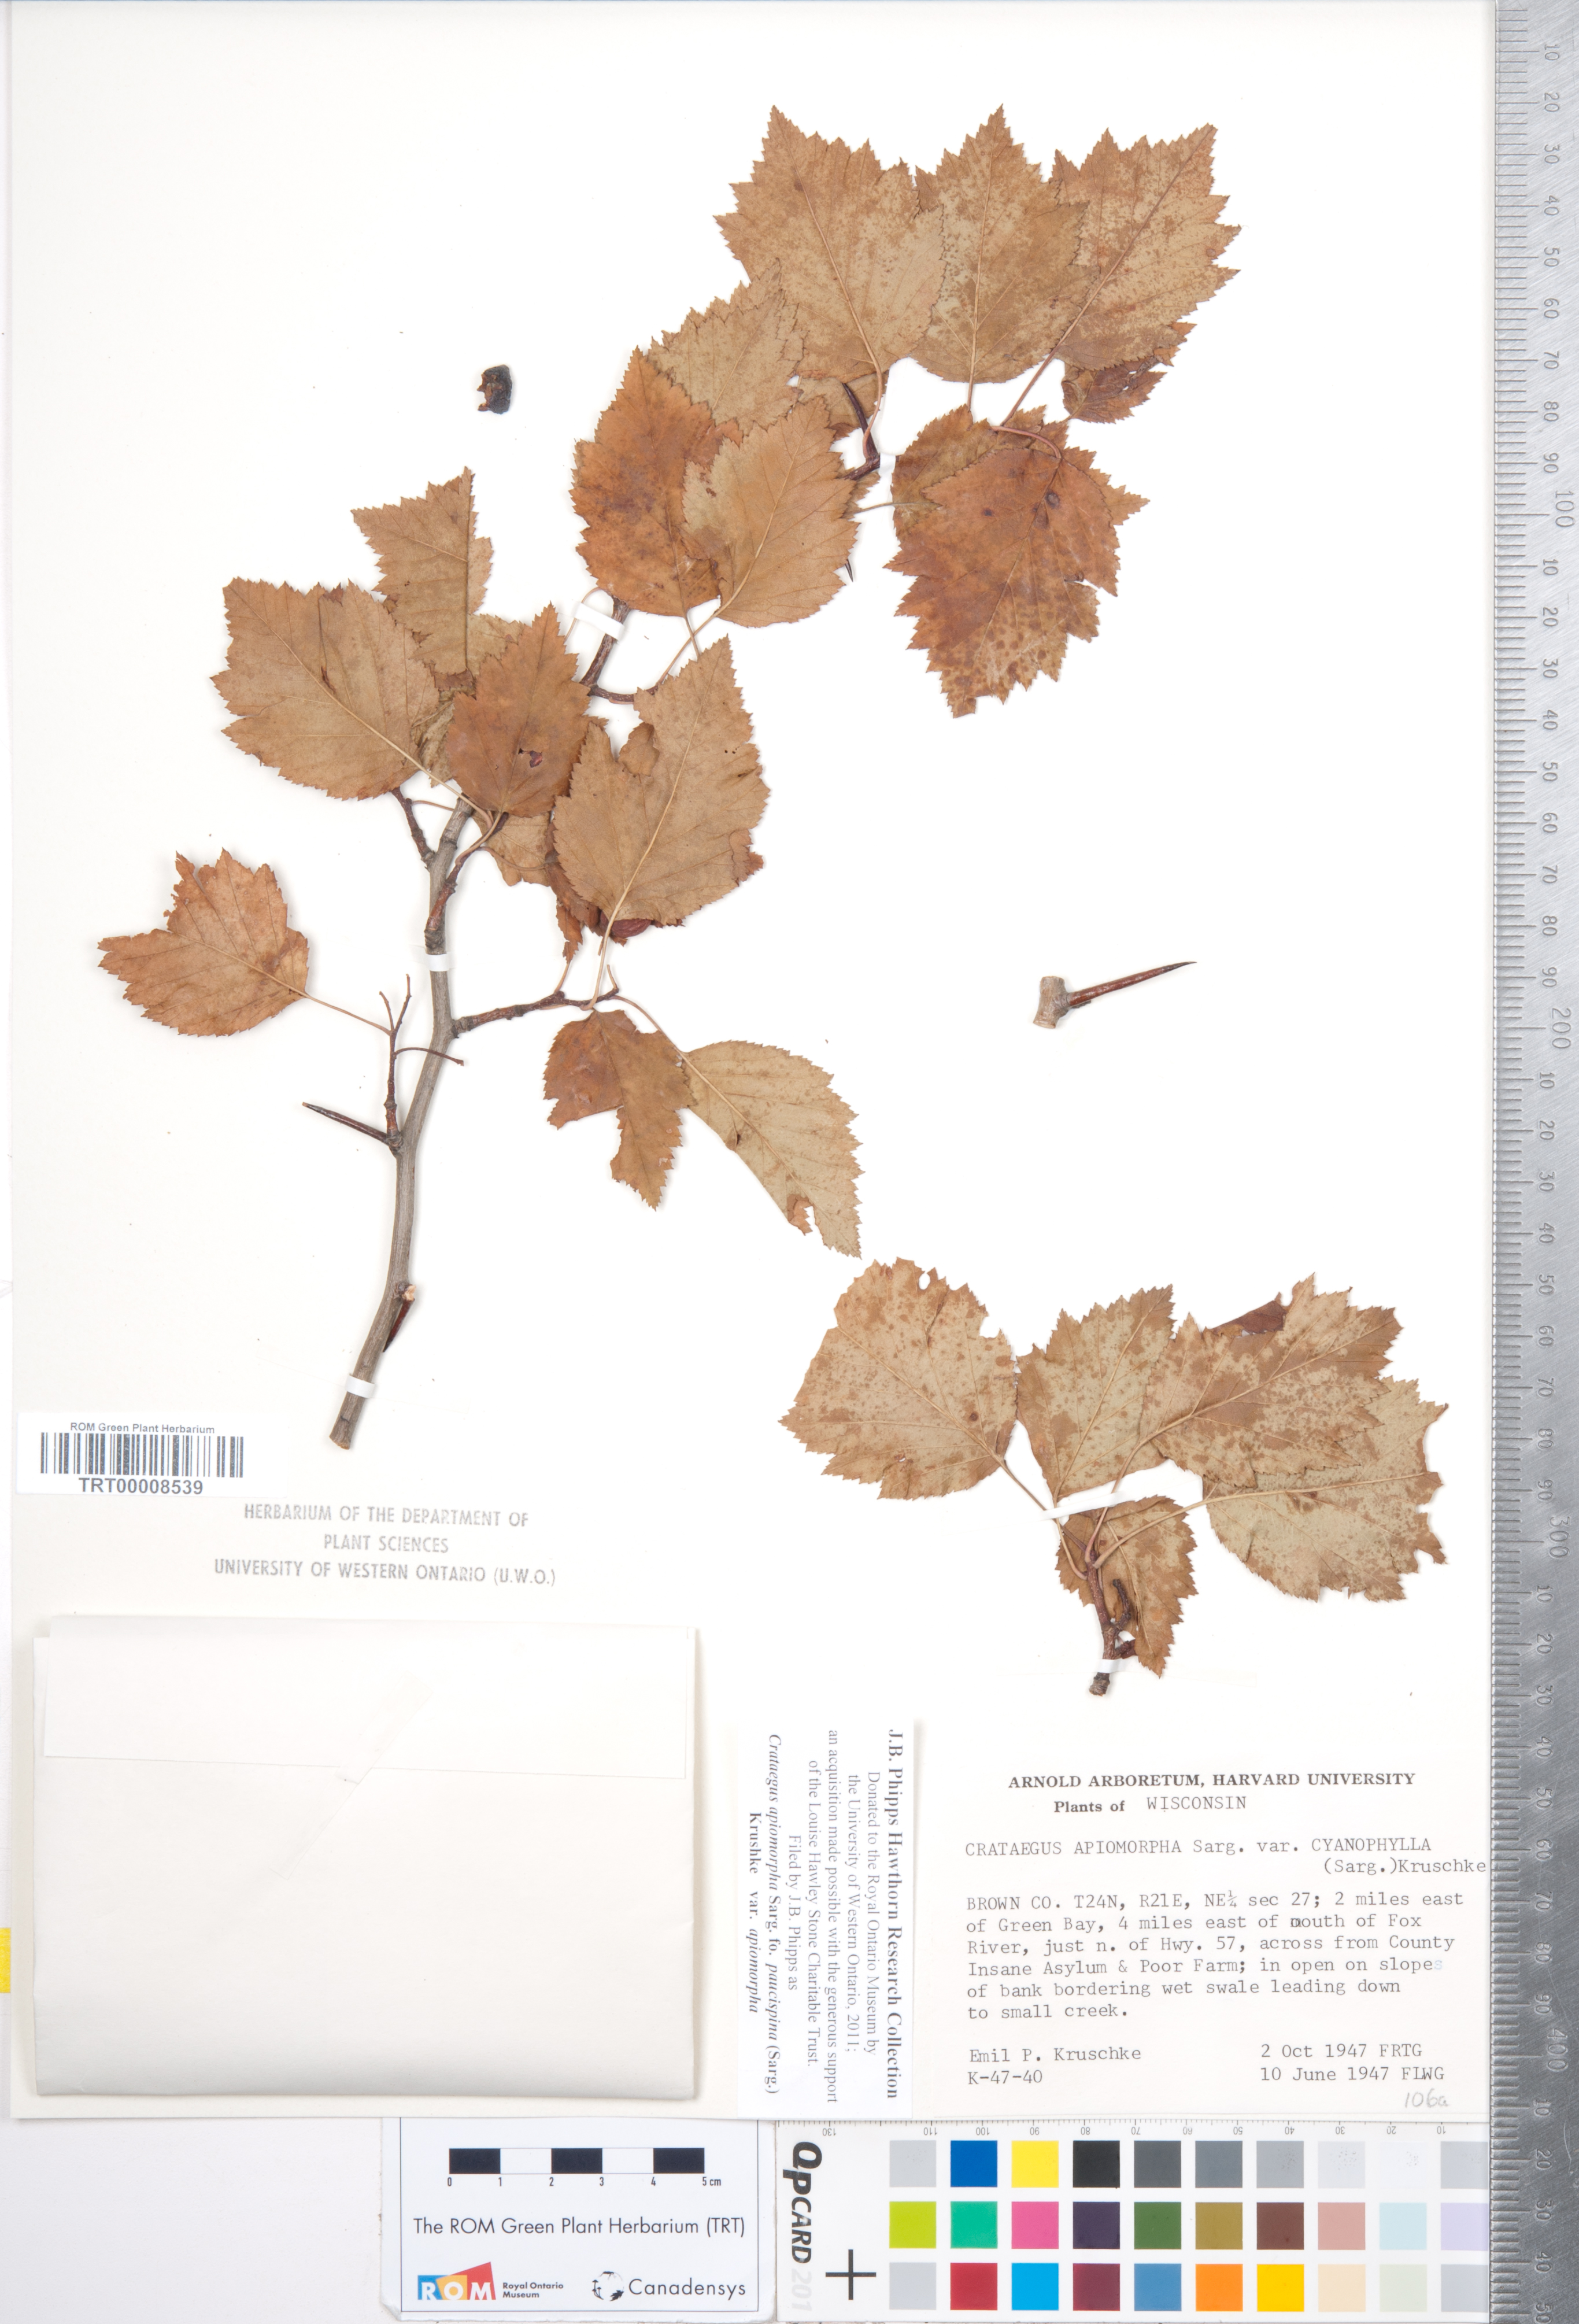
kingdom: Plantae
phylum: Tracheophyta
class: Magnoliopsida
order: Rosales
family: Rosaceae
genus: Crataegus
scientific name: Crataegus fluviatilis
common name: Fort sheridan hawthorn
